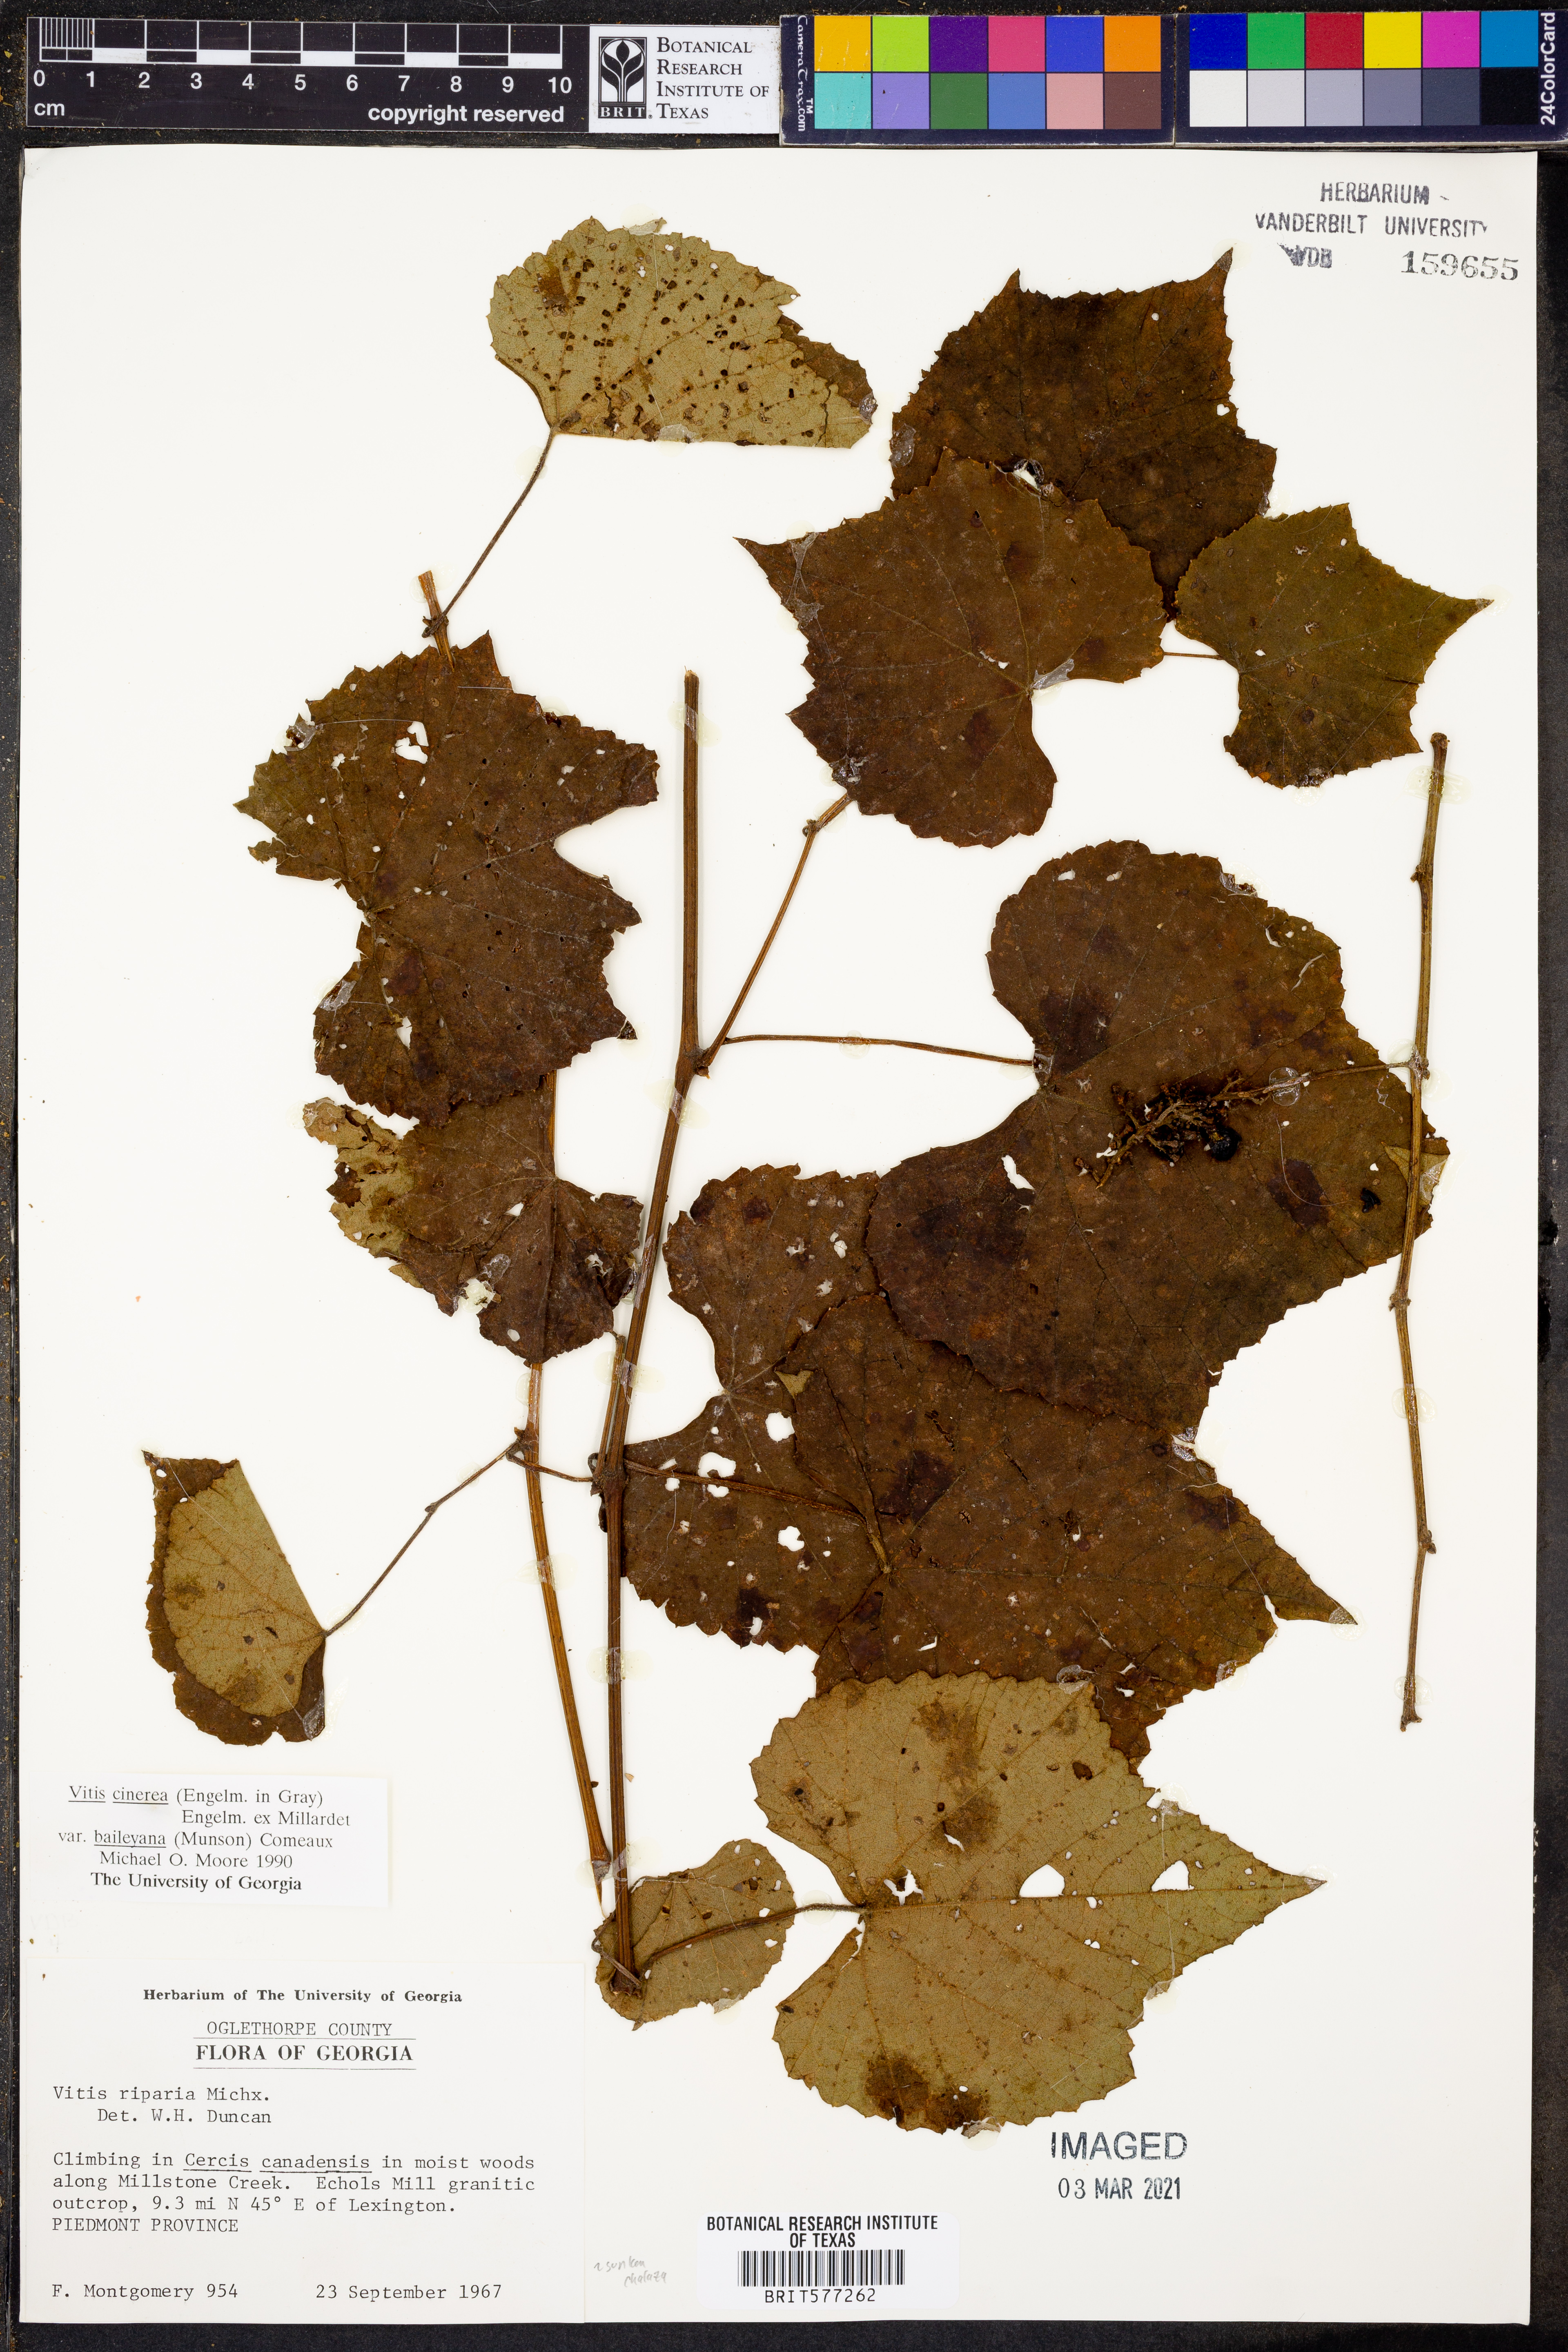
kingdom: Plantae
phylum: Tracheophyta
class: Magnoliopsida
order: Vitales
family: Vitaceae
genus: Vitis
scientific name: Vitis cinerea
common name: Ashy grape
